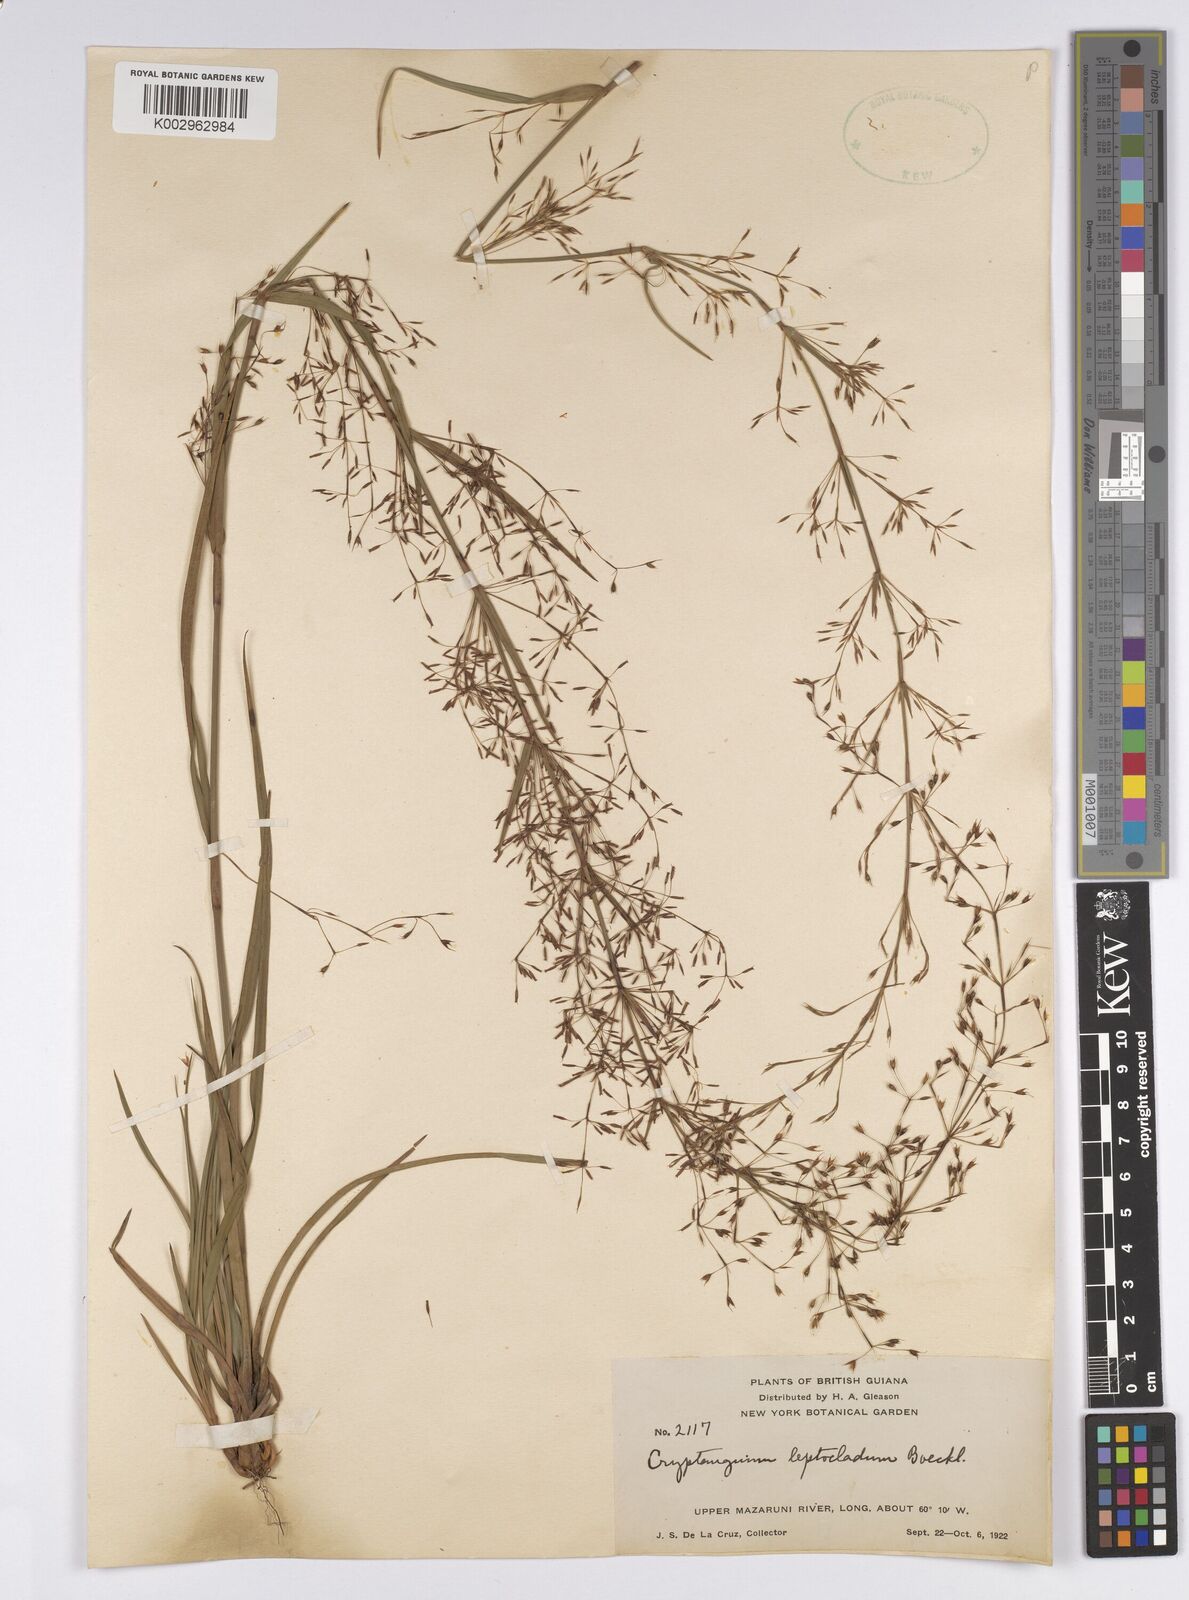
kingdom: Plantae
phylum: Tracheophyta
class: Liliopsida
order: Poales
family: Cyperaceae
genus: Cryptangium
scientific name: Cryptangium verticillatum
